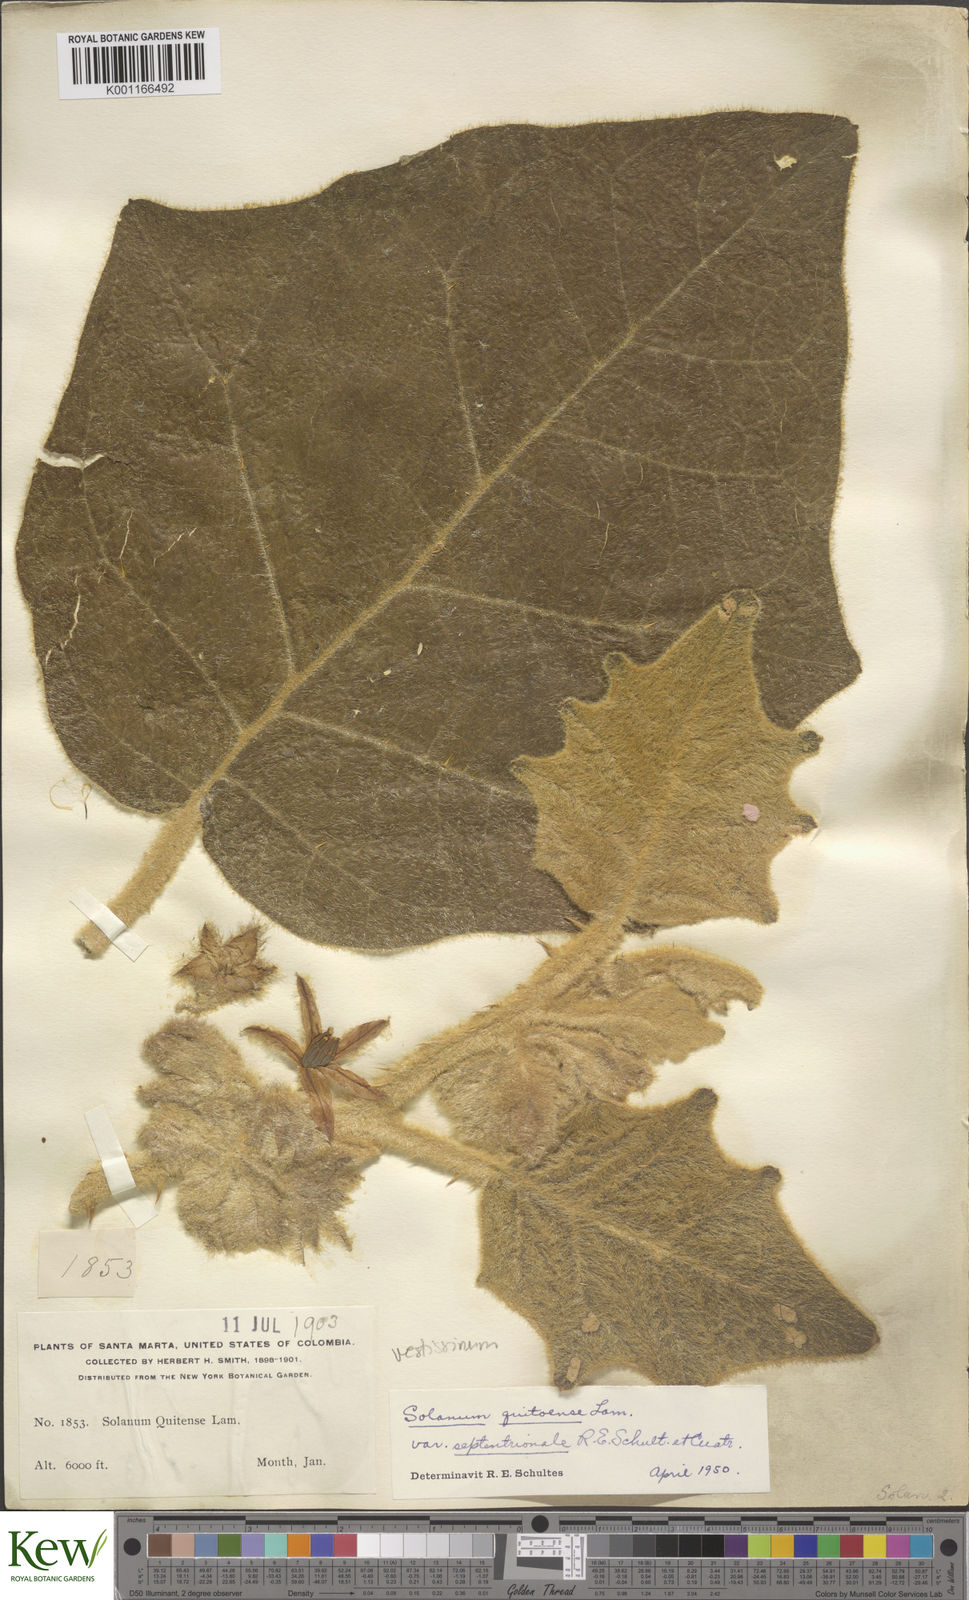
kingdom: Plantae
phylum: Tracheophyta
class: Magnoliopsida
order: Solanales
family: Solanaceae
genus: Solanum
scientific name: Solanum vestissimum
